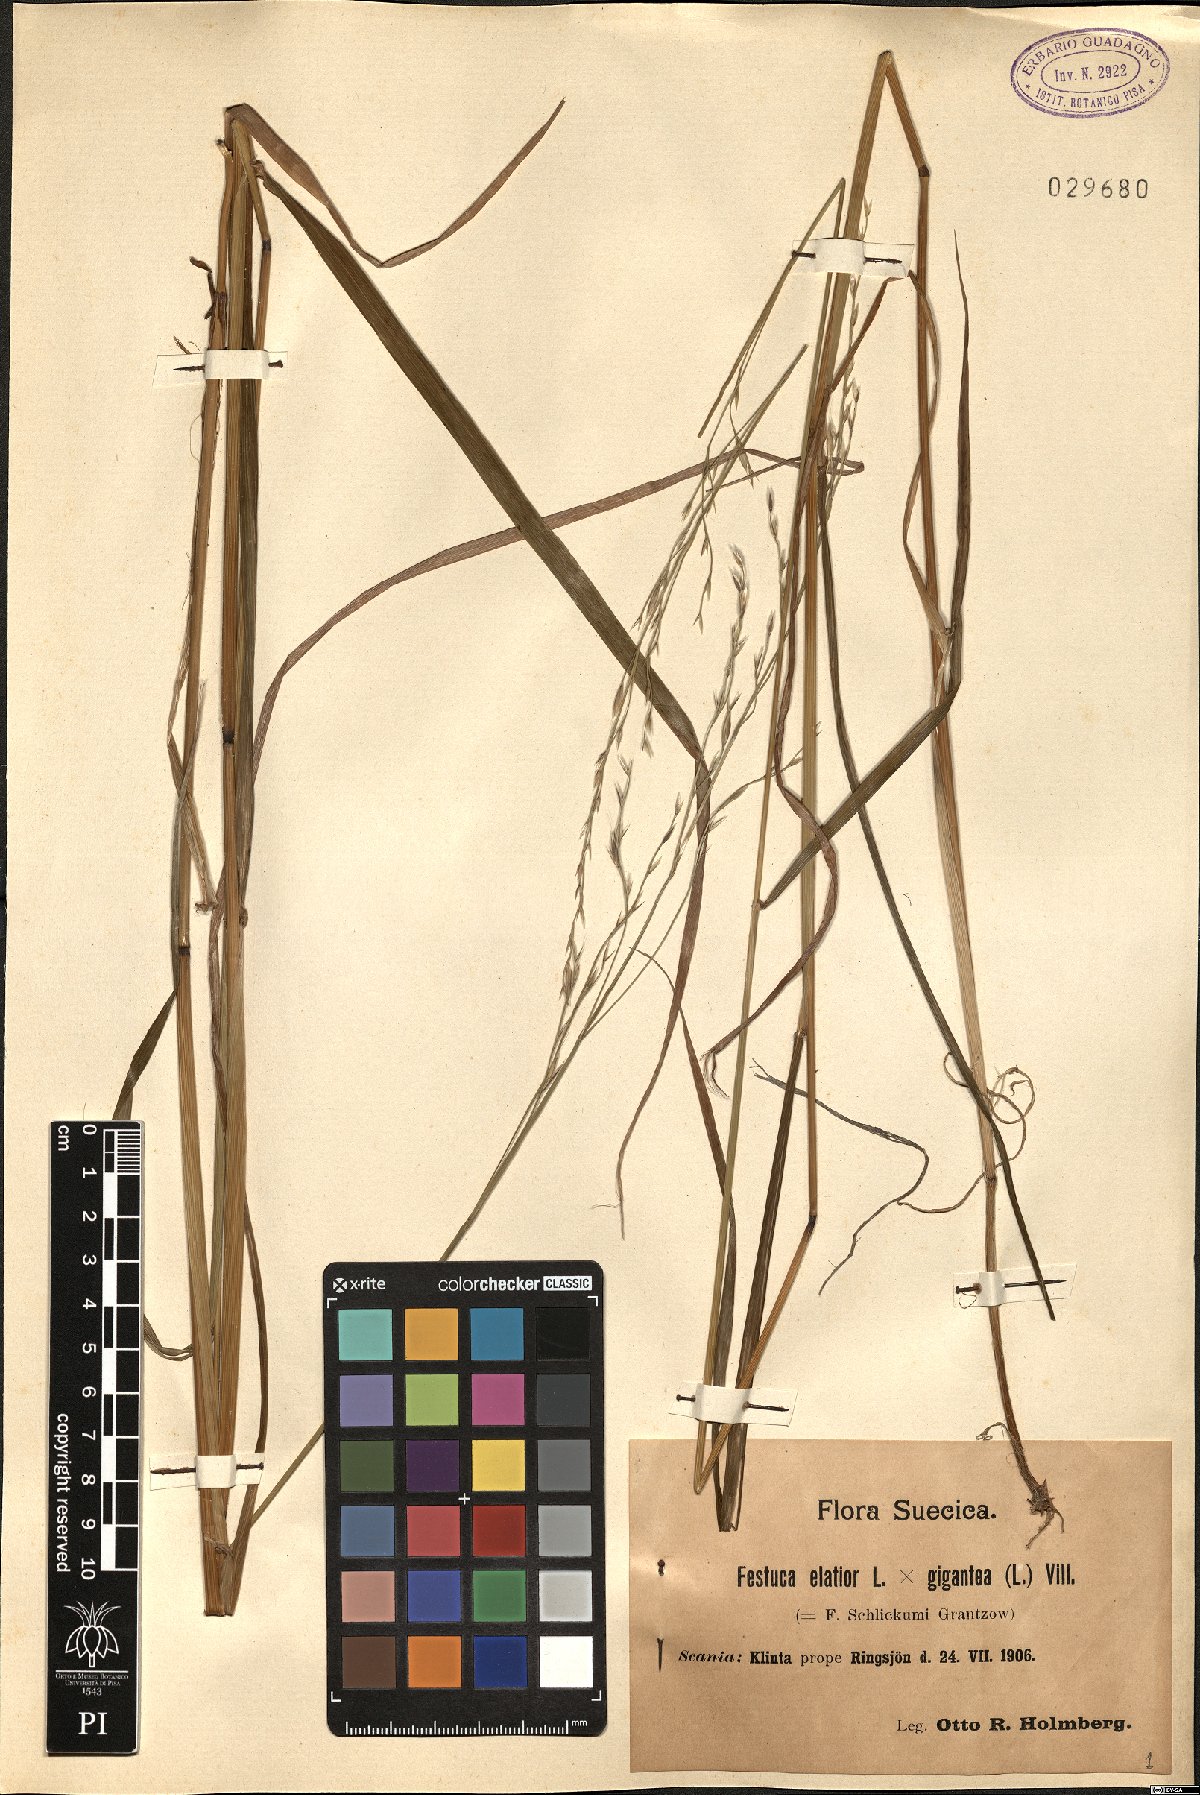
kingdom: Plantae
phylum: Tracheophyta
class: Liliopsida
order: Poales
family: Poaceae
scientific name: Poaceae
